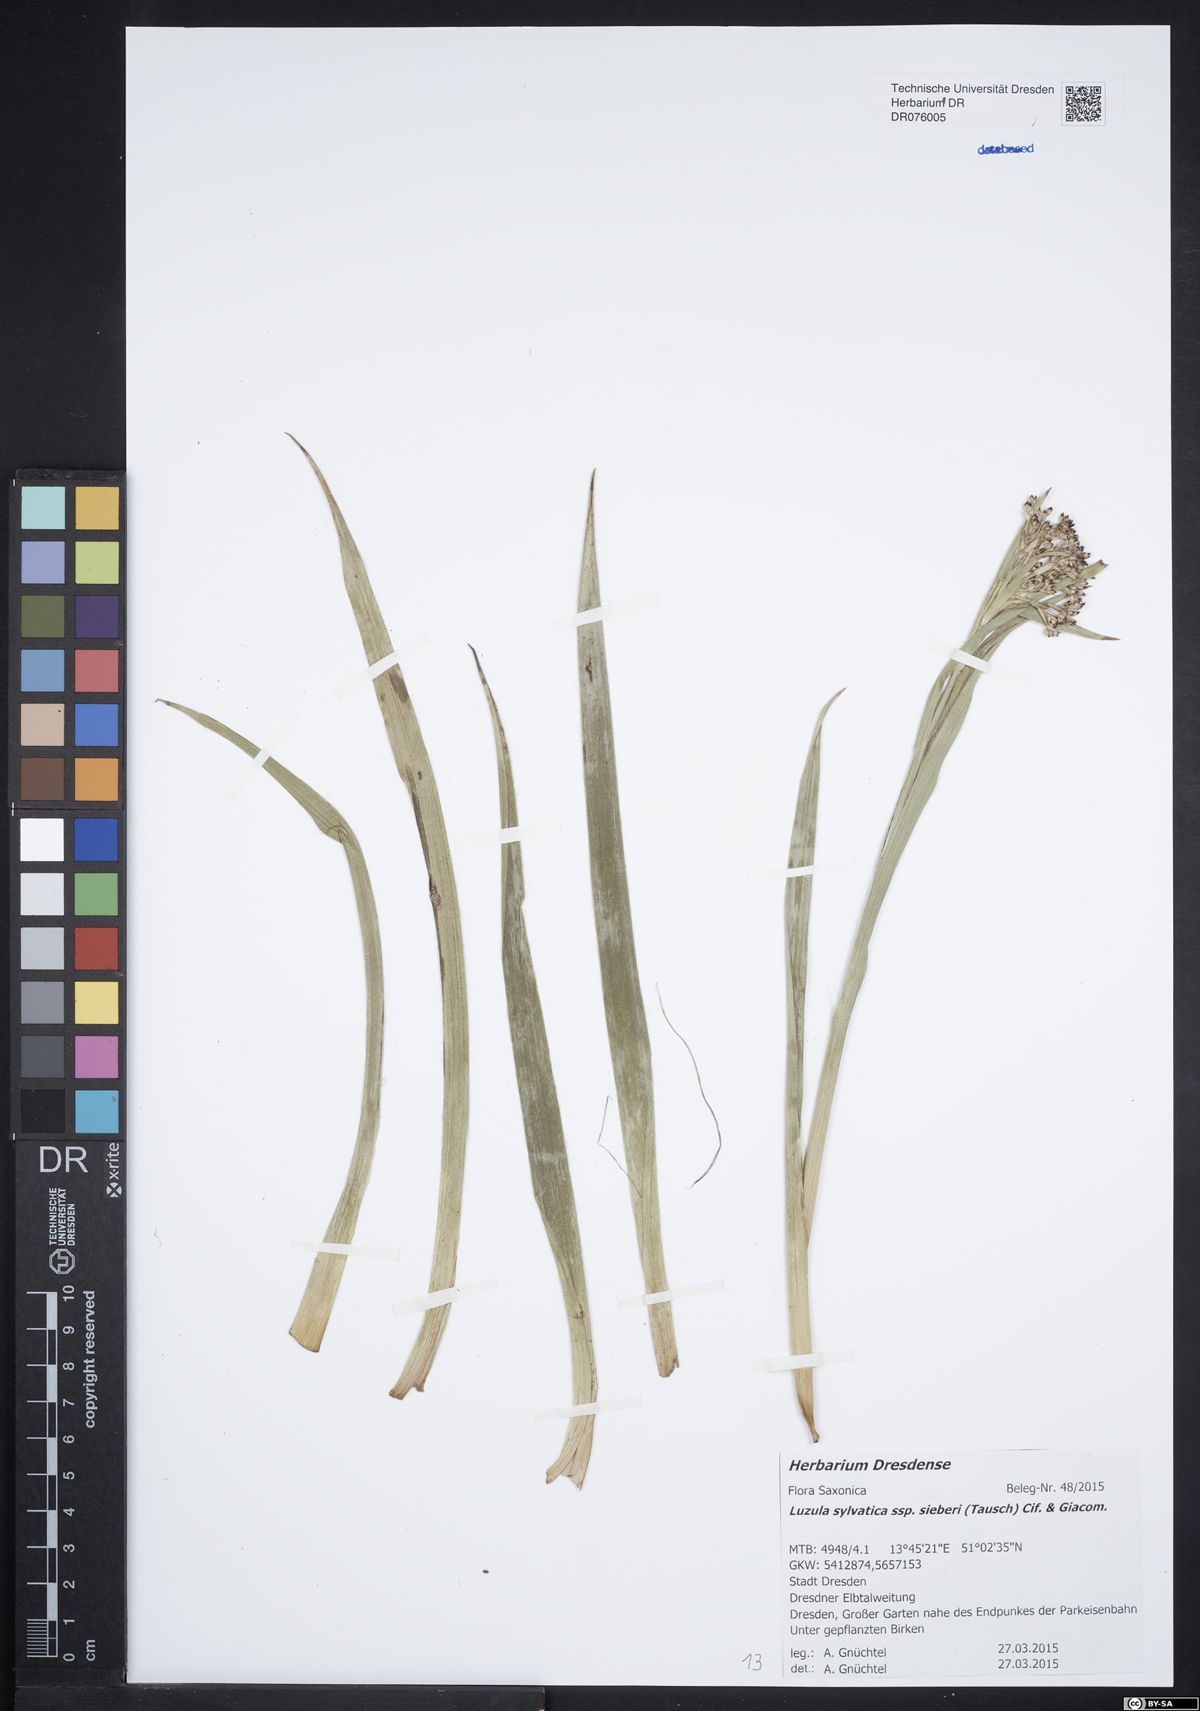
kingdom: Plantae
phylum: Tracheophyta
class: Liliopsida
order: Poales
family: Juncaceae
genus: Luzula
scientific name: Luzula sylvatica
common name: Great wood-rush
